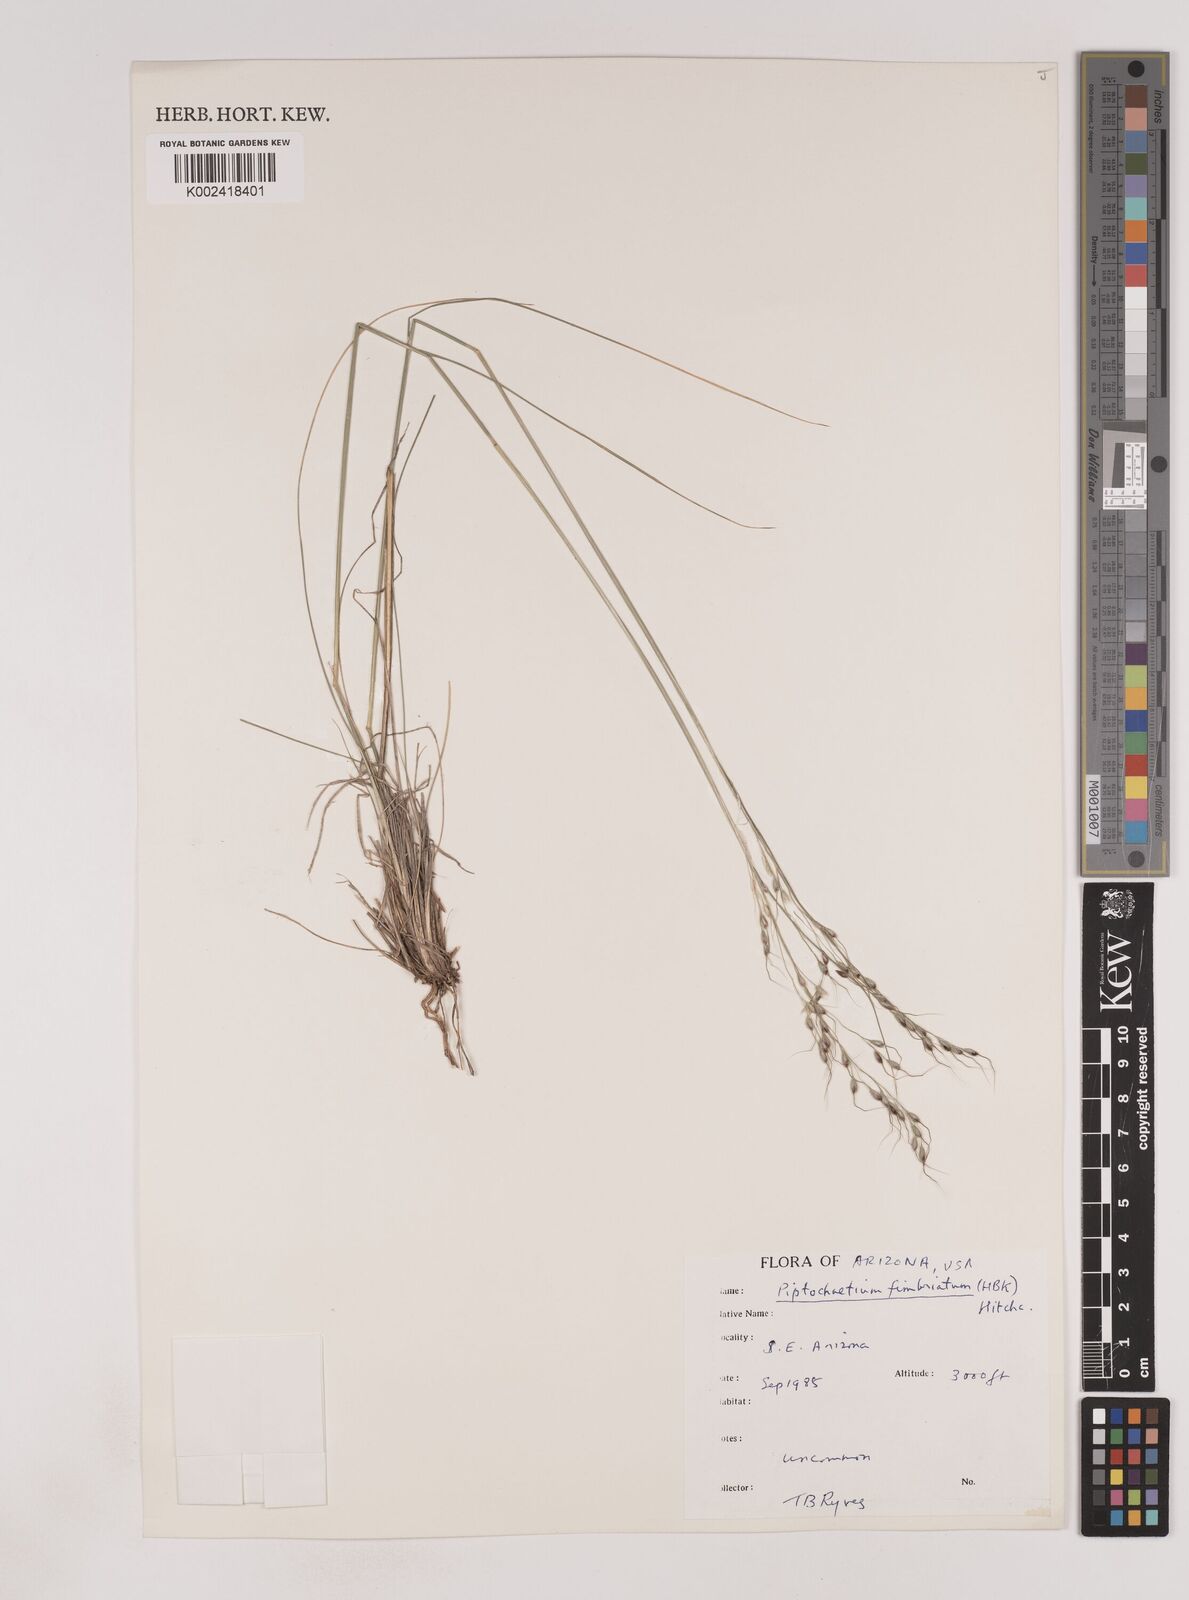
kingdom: Plantae
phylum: Tracheophyta
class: Liliopsida
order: Poales
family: Poaceae
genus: Piptochaetium
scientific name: Piptochaetium fimbriatum
